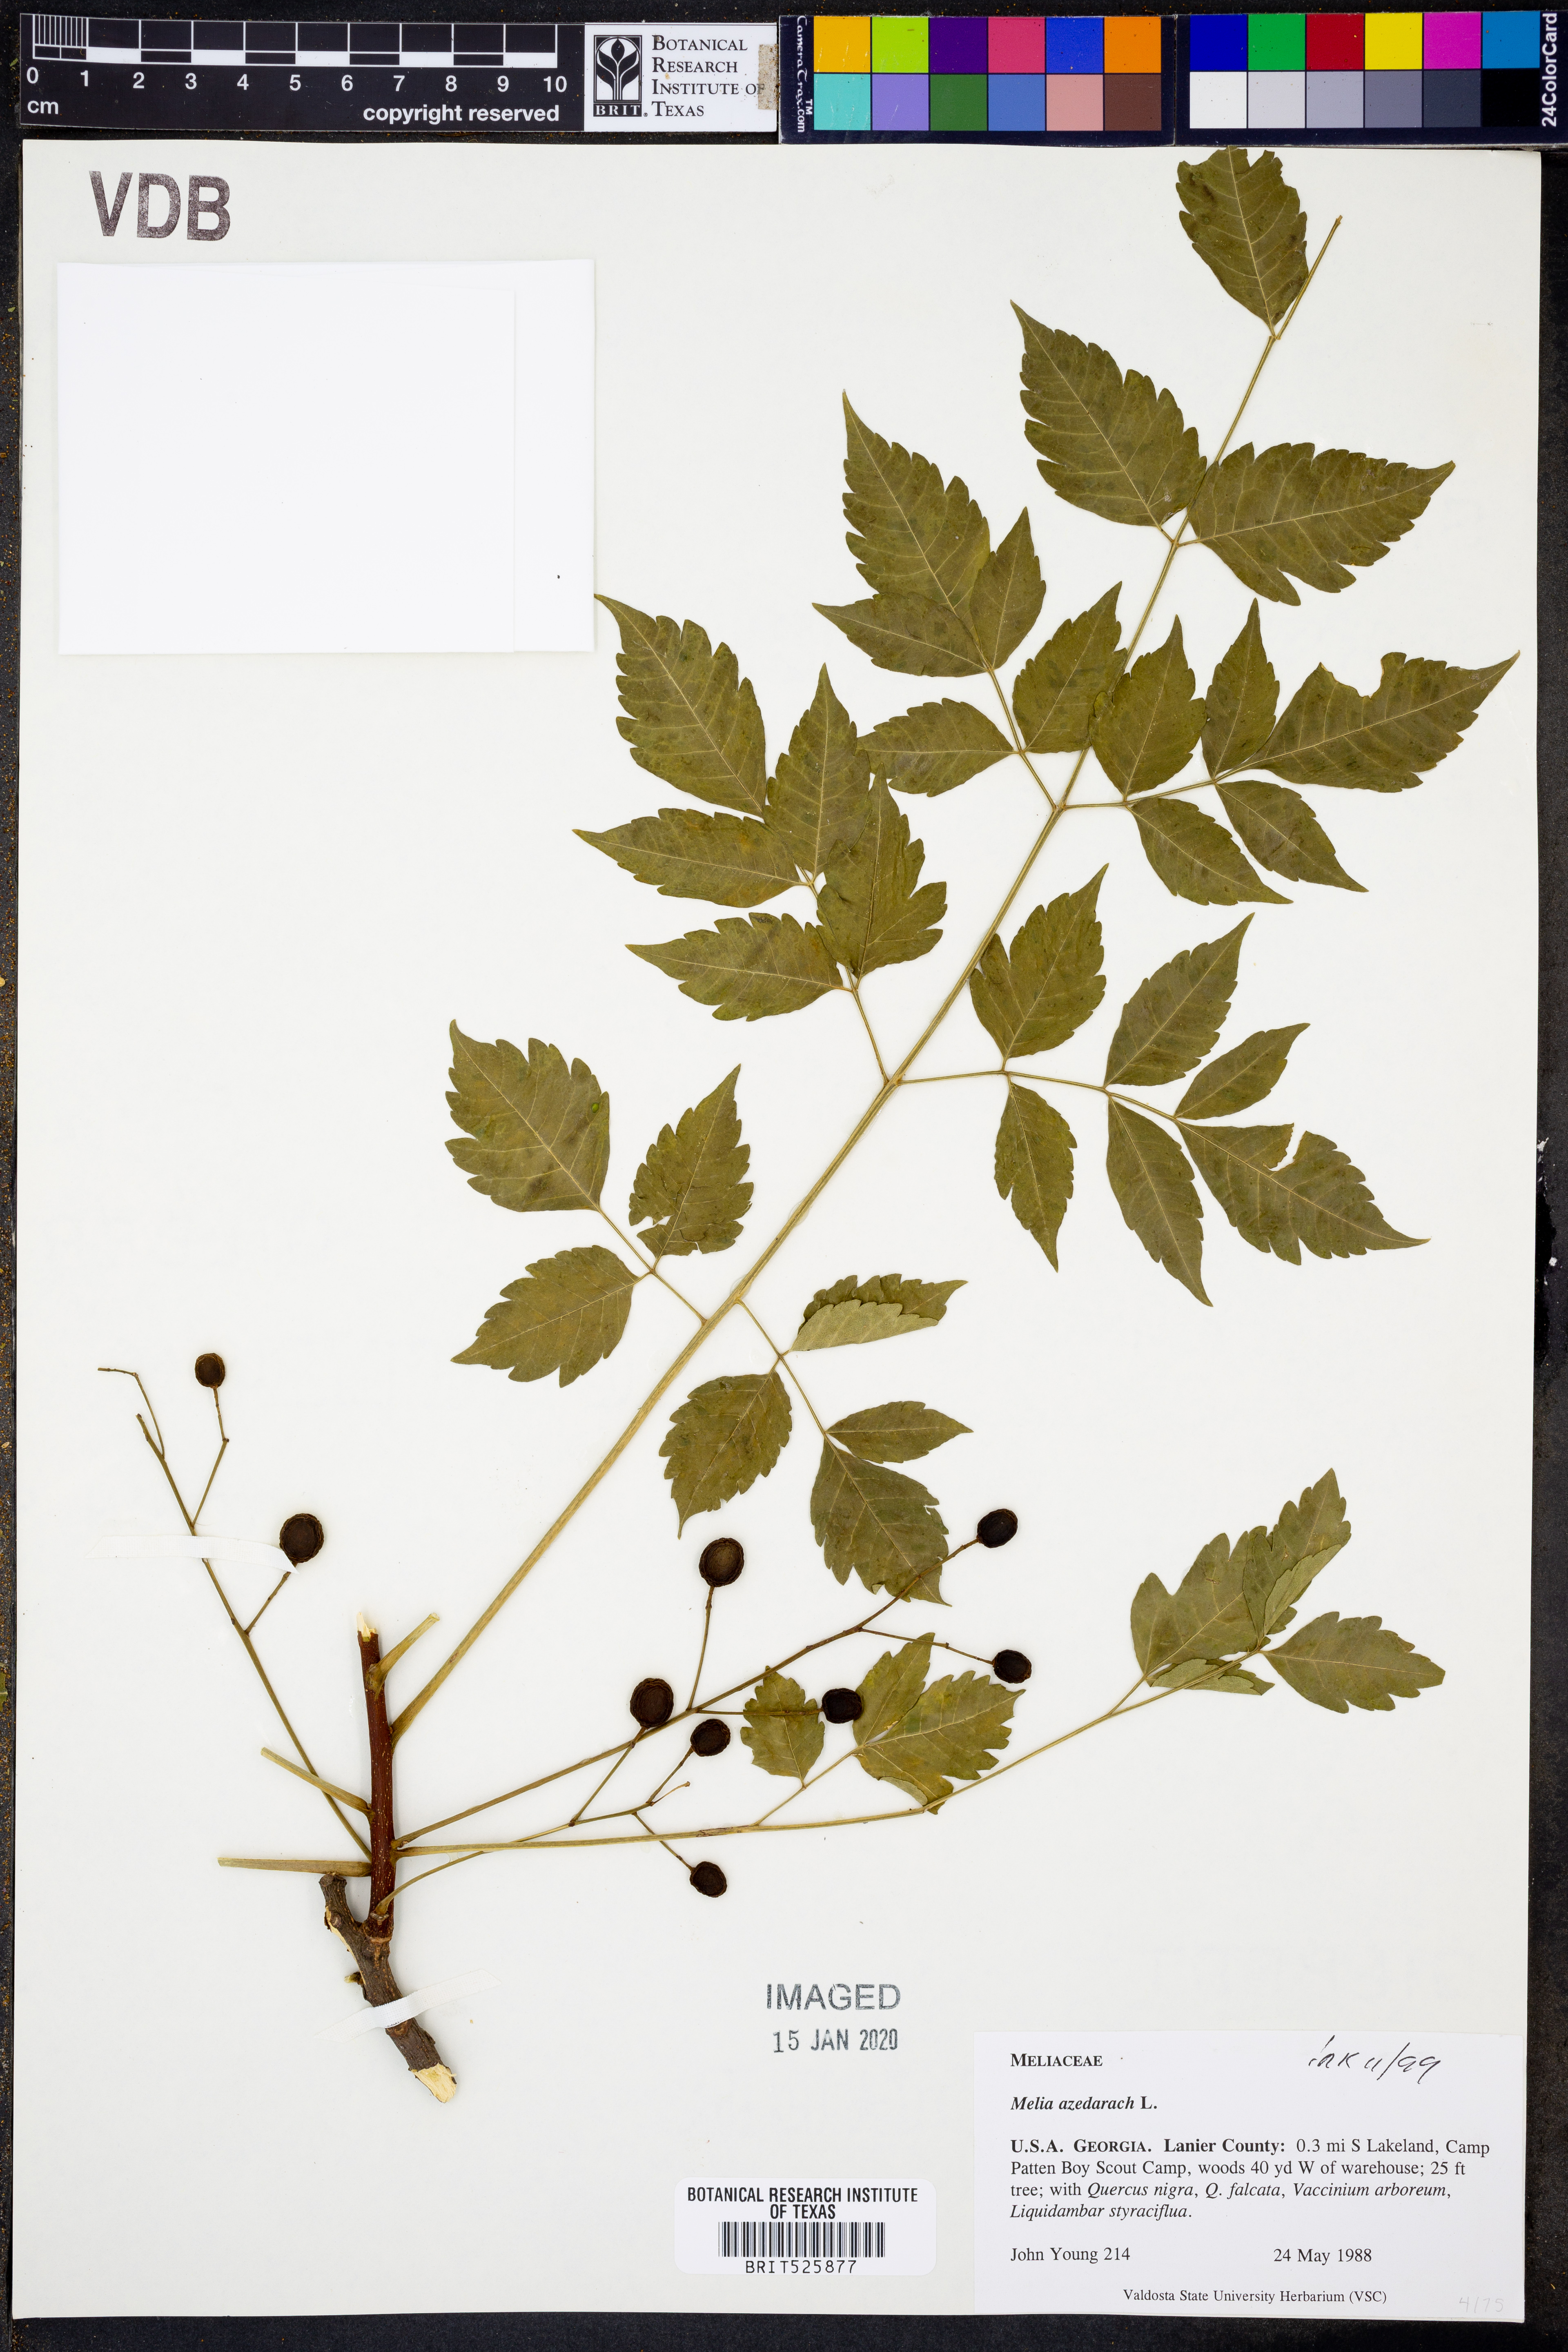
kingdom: Plantae
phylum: Tracheophyta
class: Magnoliopsida
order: Sapindales
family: Meliaceae
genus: Melia
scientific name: Melia azedarach
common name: Chinaberrytree
